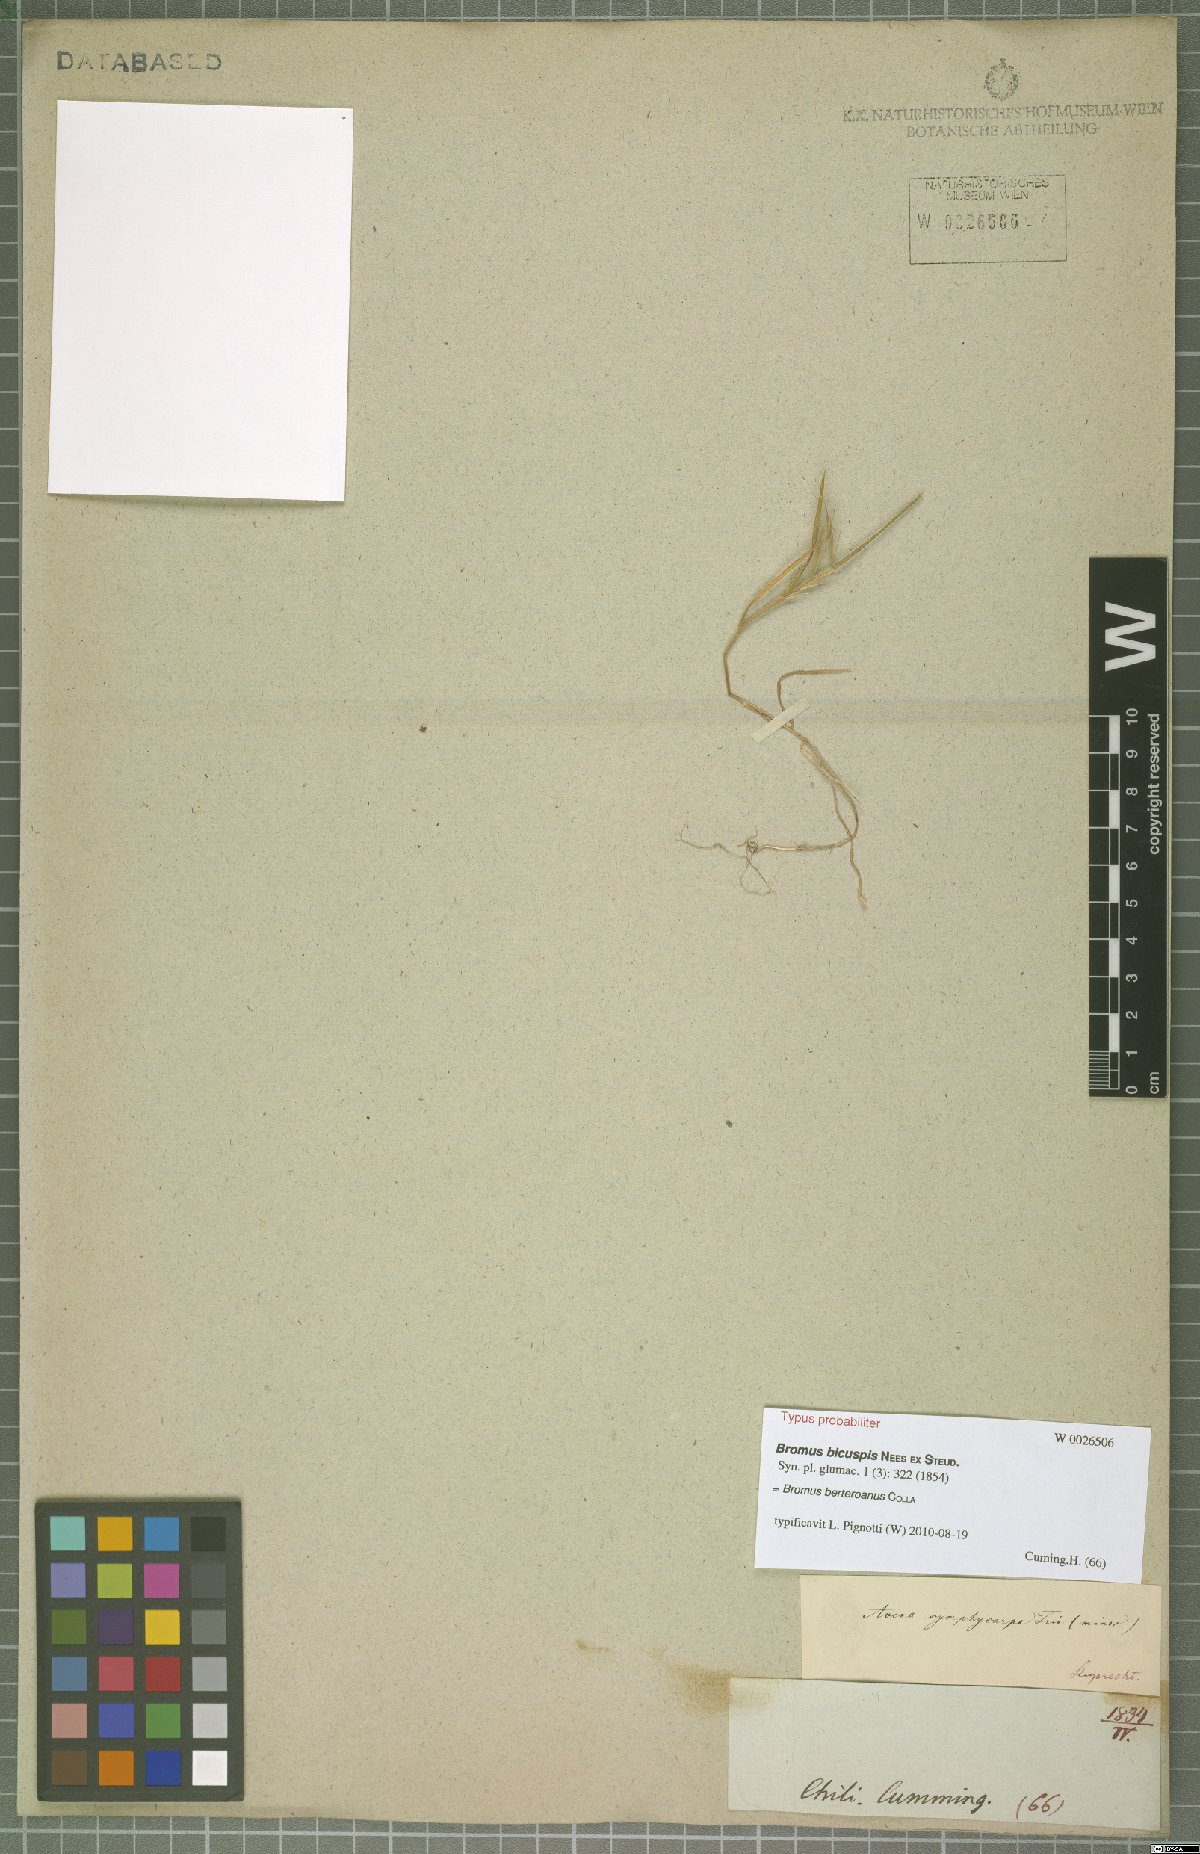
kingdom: Plantae
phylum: Tracheophyta
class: Liliopsida
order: Poales
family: Poaceae
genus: Bromus
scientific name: Bromus berteroanus
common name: Chilean chess
